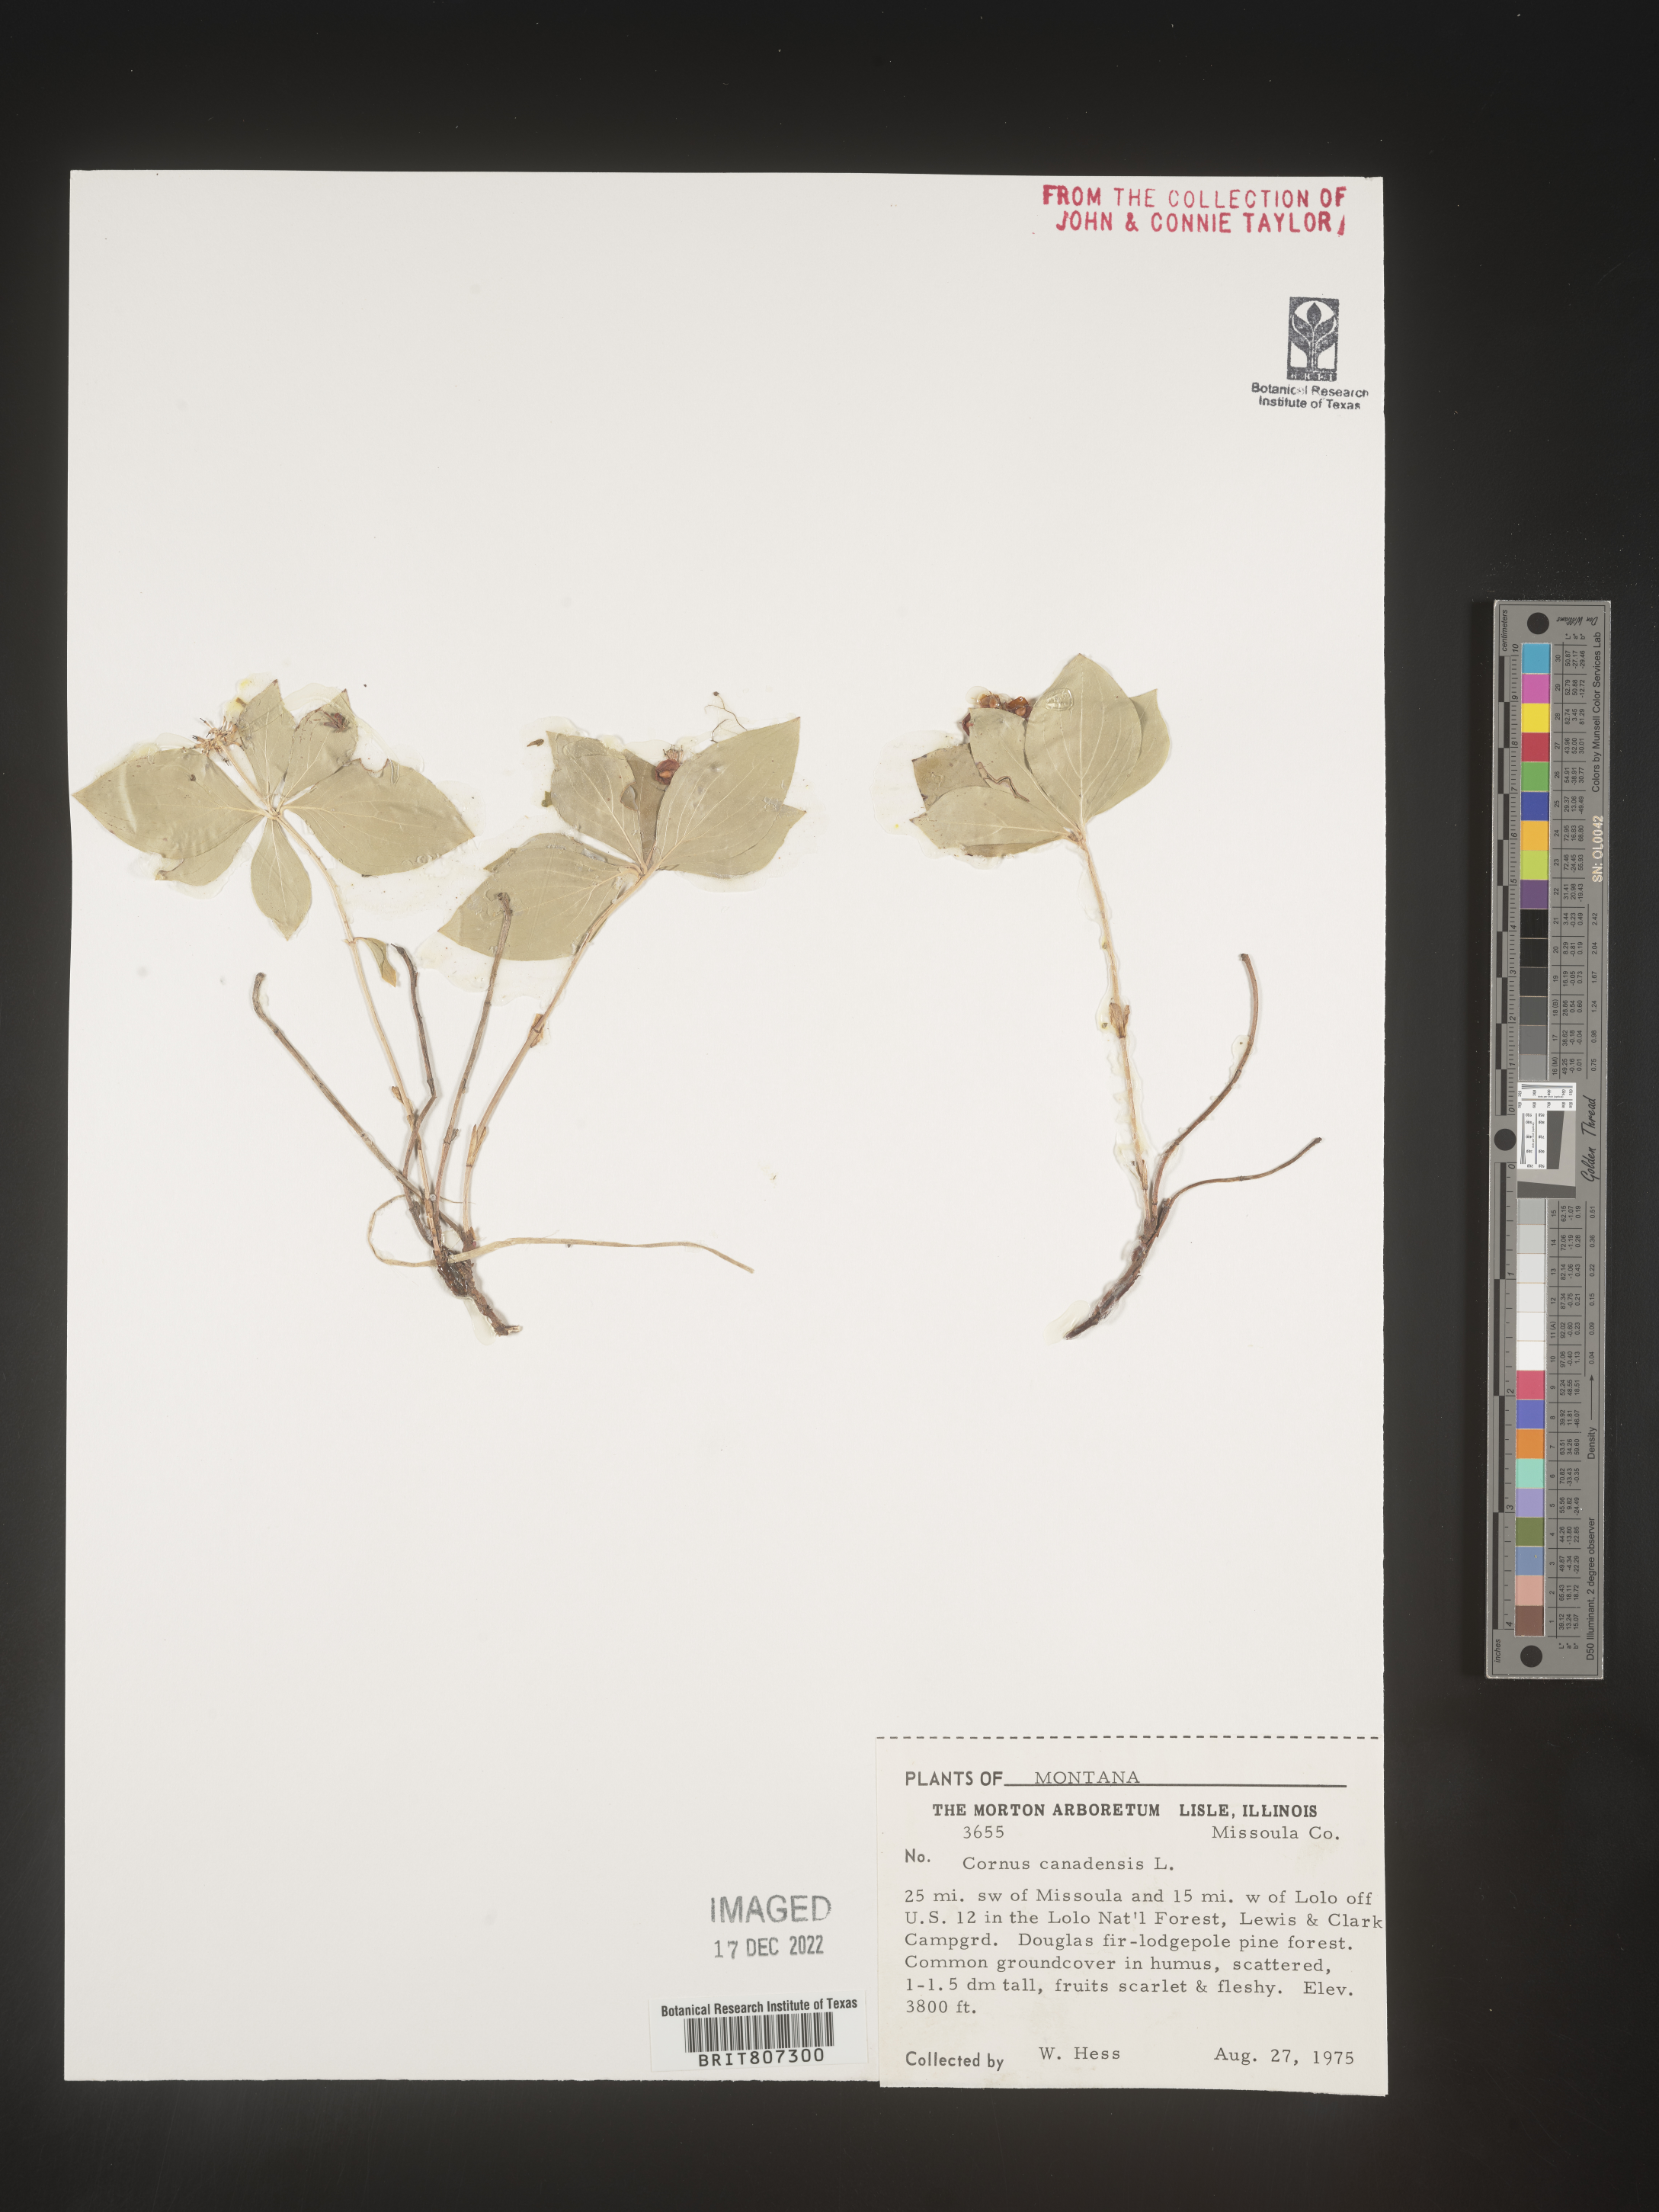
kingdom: Plantae
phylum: Tracheophyta
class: Magnoliopsida
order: Cornales
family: Cornaceae
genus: Cornus
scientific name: Cornus canadensis
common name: Creeping dogwood
